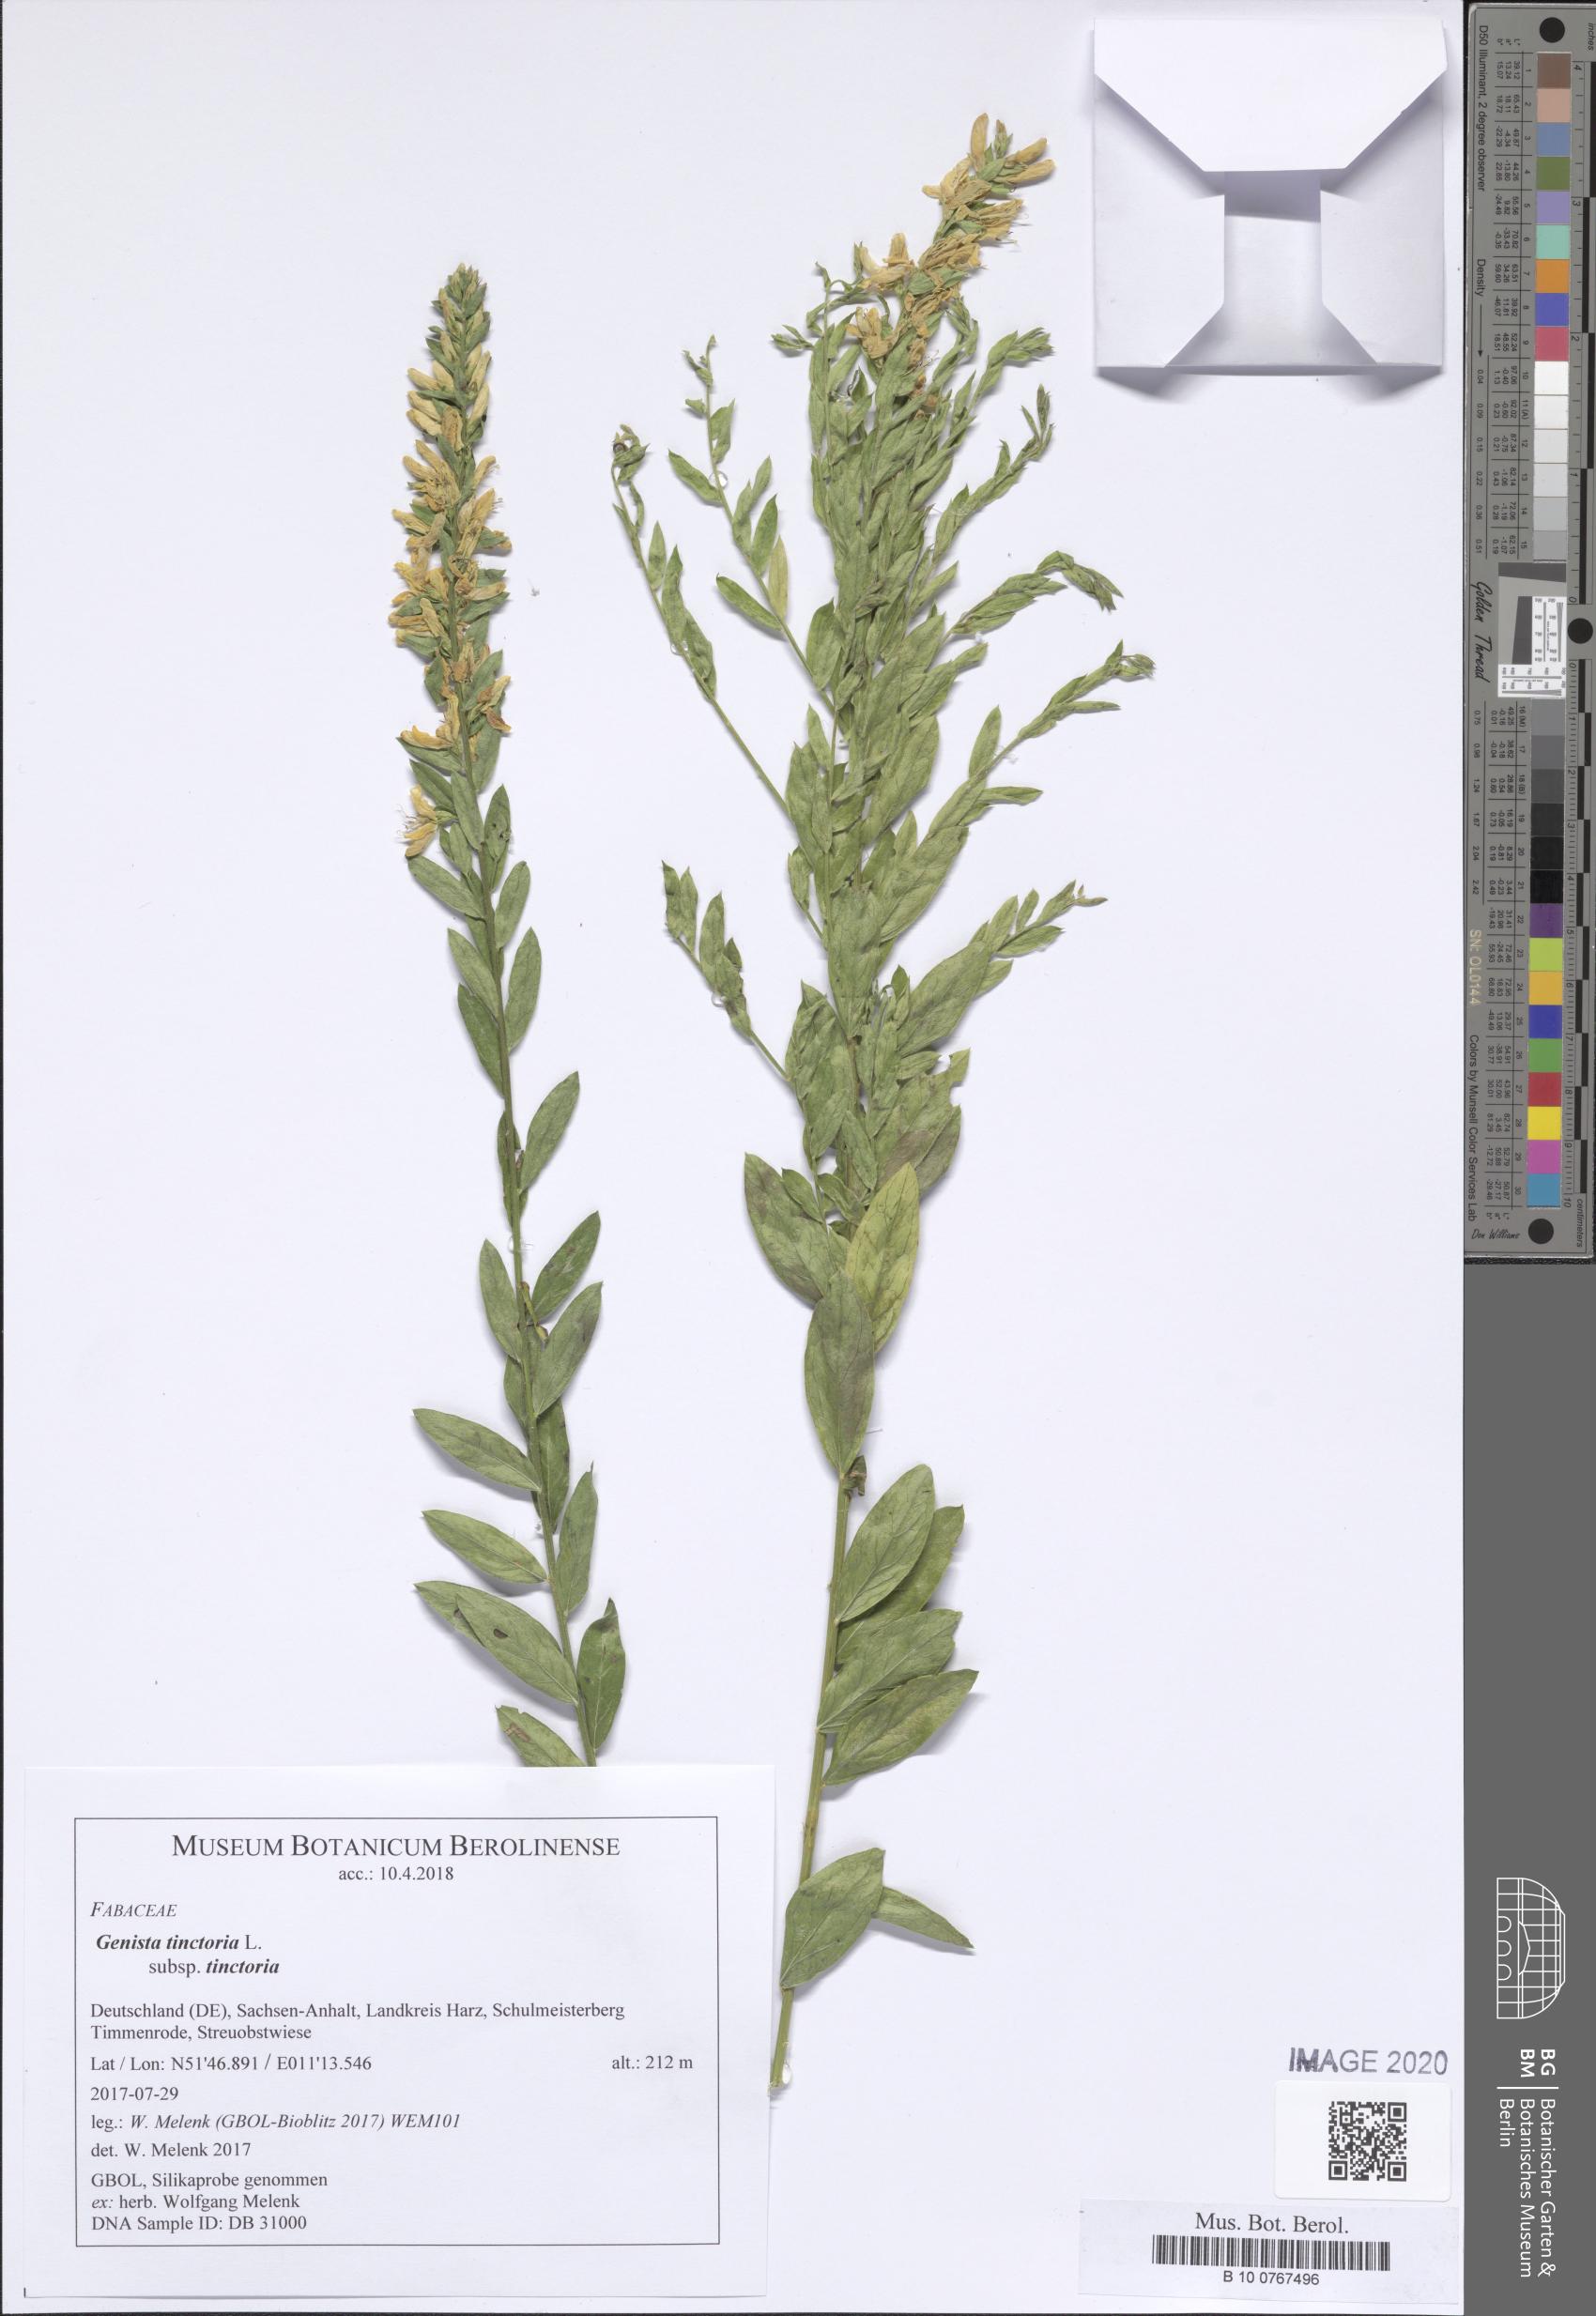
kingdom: Plantae
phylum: Tracheophyta
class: Magnoliopsida
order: Fabales
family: Fabaceae
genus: Genista
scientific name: Genista tinctoria
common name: Dyer's greenweed
